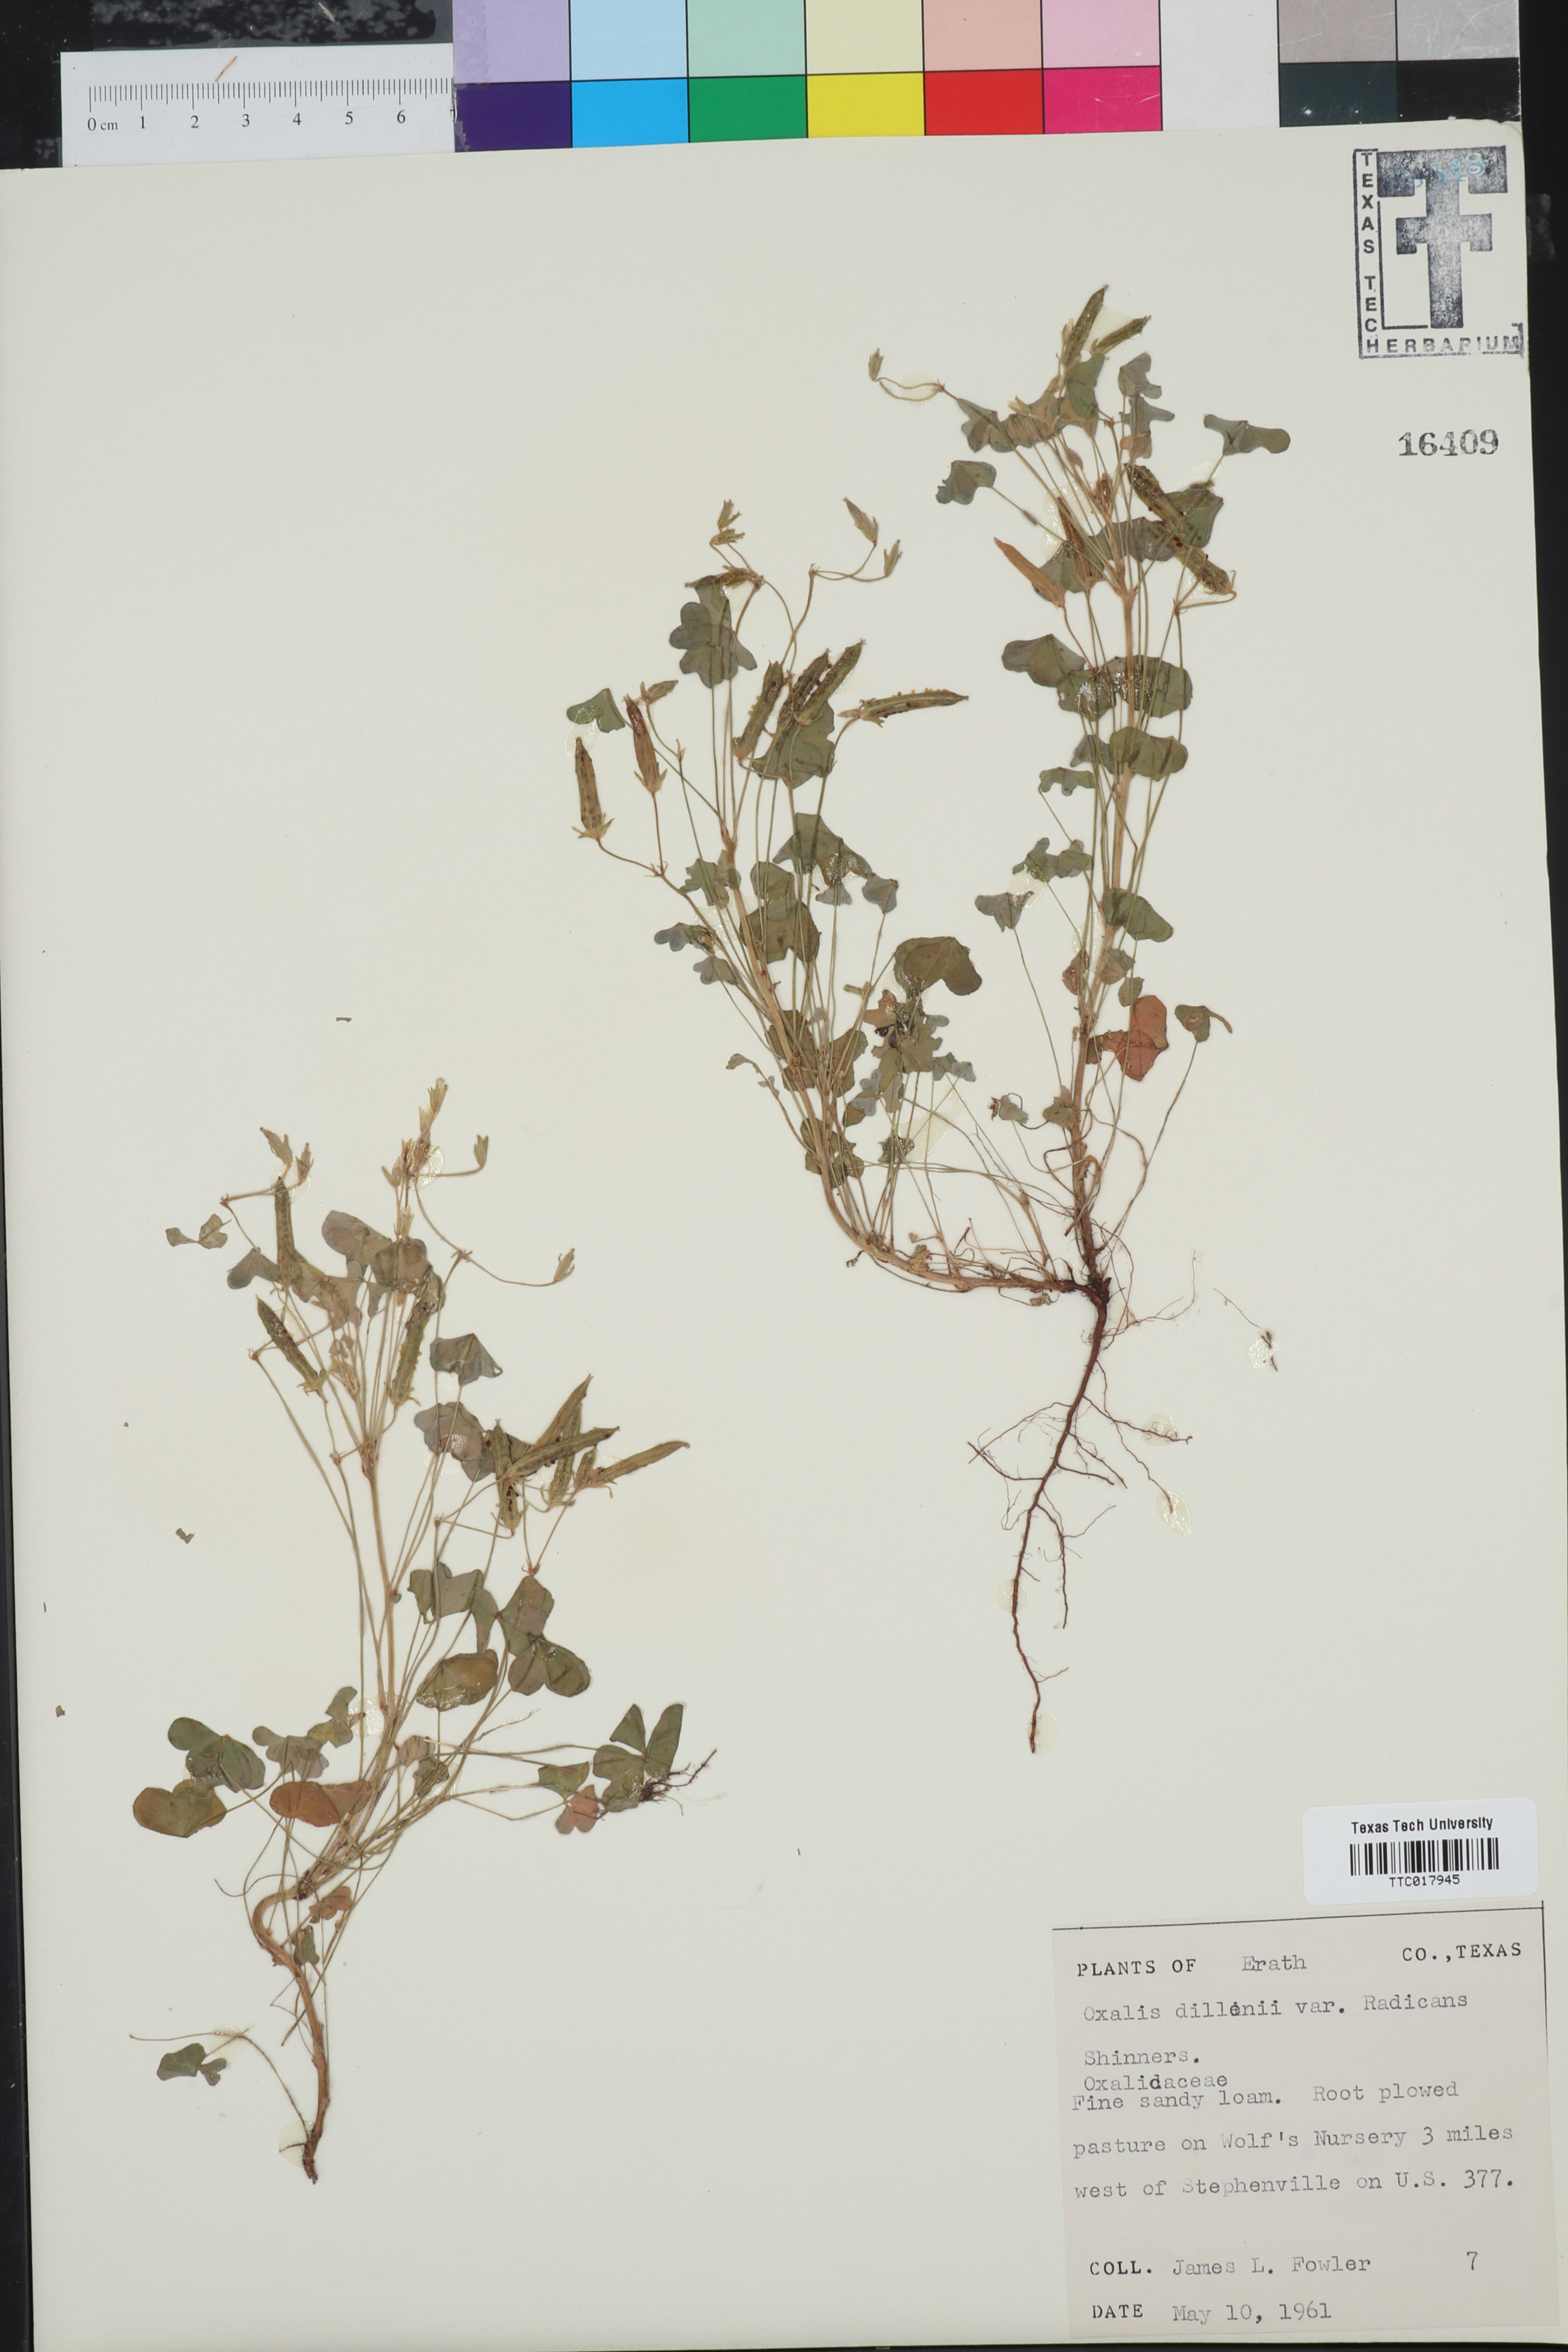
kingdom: Plantae
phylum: Tracheophyta
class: Magnoliopsida
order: Oxalidales
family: Oxalidaceae
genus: Oxalis
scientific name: Oxalis dillenii
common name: Sussex yellow-sorrel
